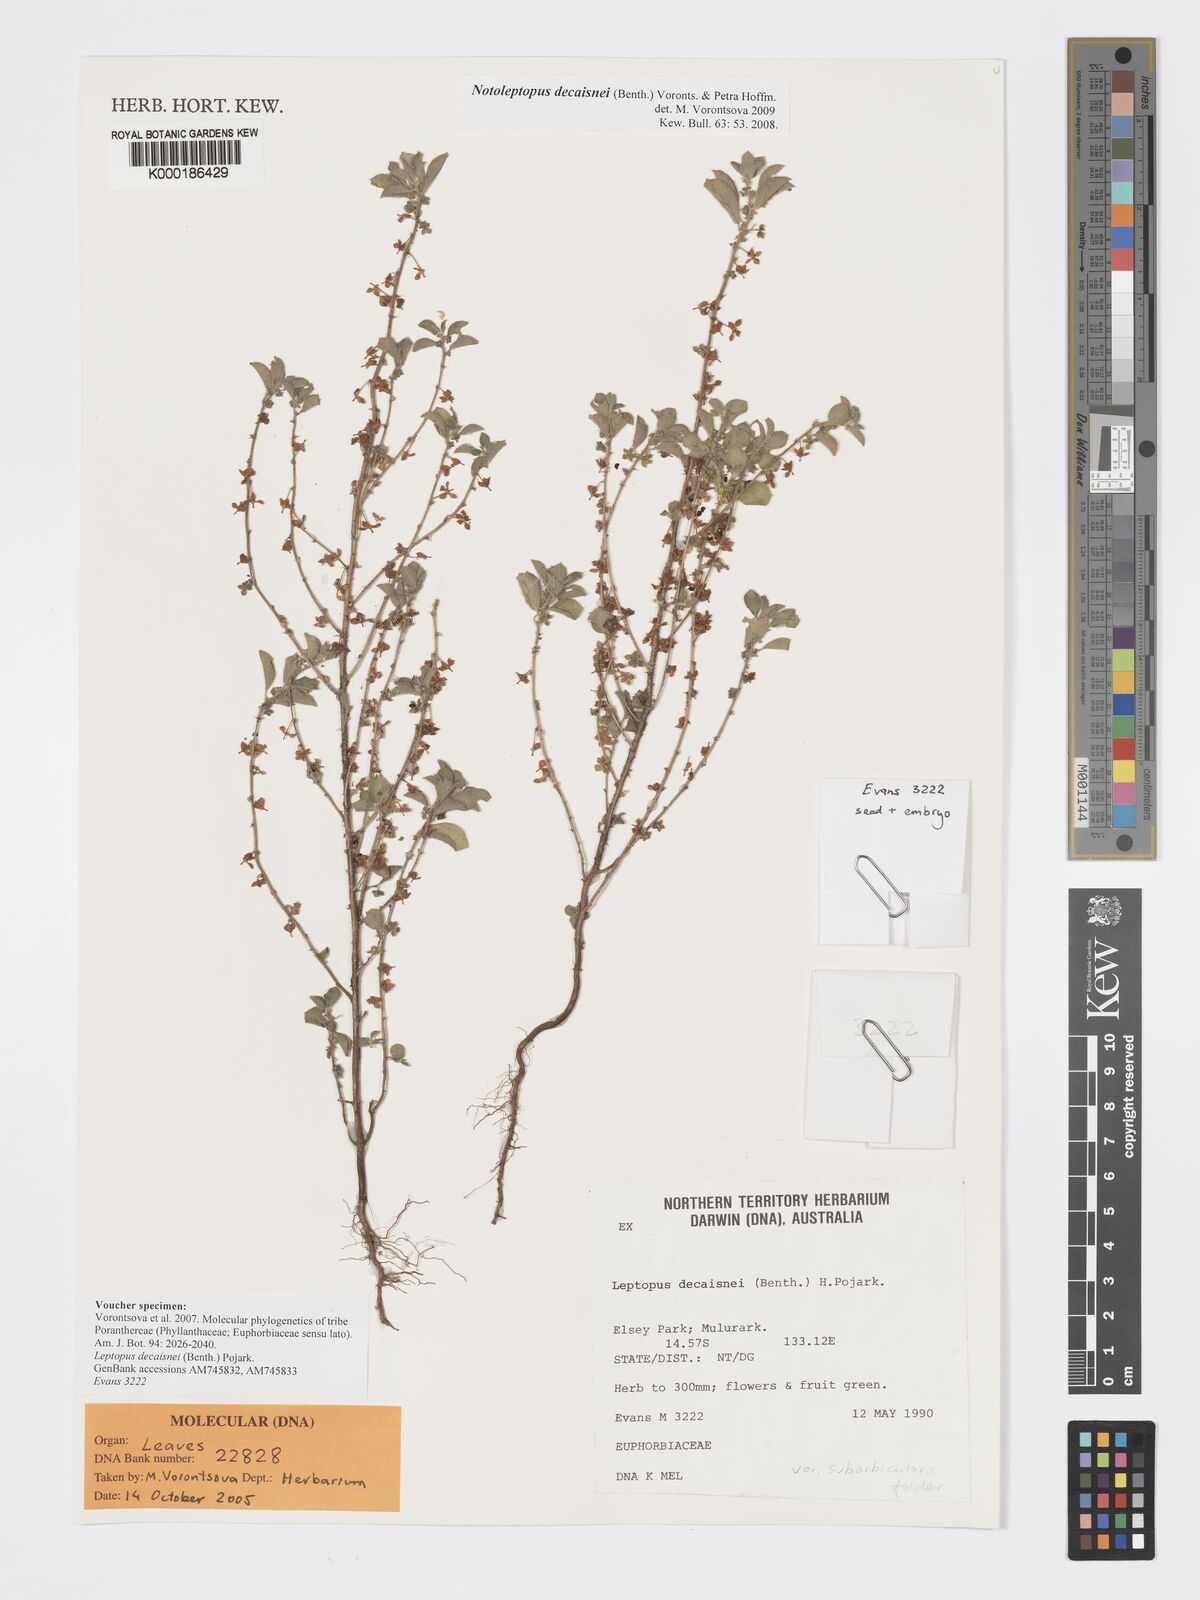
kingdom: Plantae
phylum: Tracheophyta
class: Magnoliopsida
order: Malpighiales
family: Phyllanthaceae
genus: Andrachne
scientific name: Andrachne
